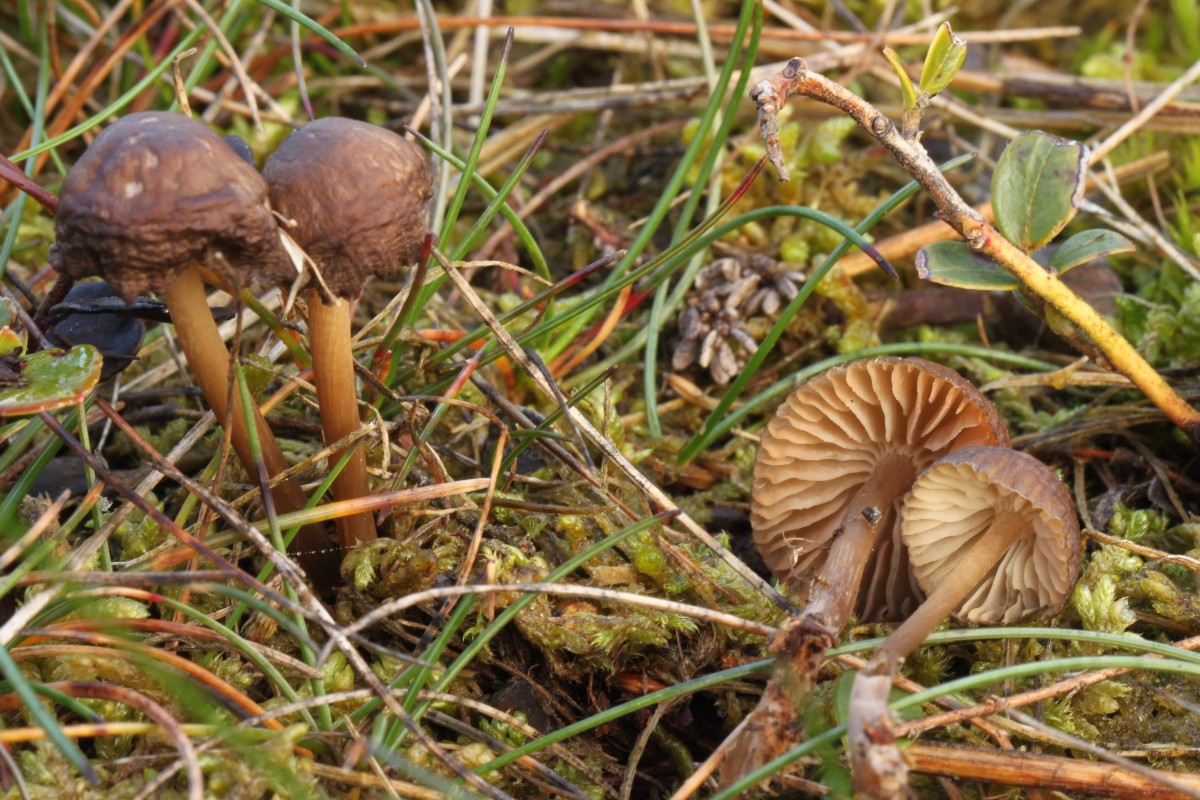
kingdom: Fungi
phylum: Basidiomycota
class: Agaricomycetes
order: Agaricales
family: Mycenaceae
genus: Mycena
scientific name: Mycena
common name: huesvamp
